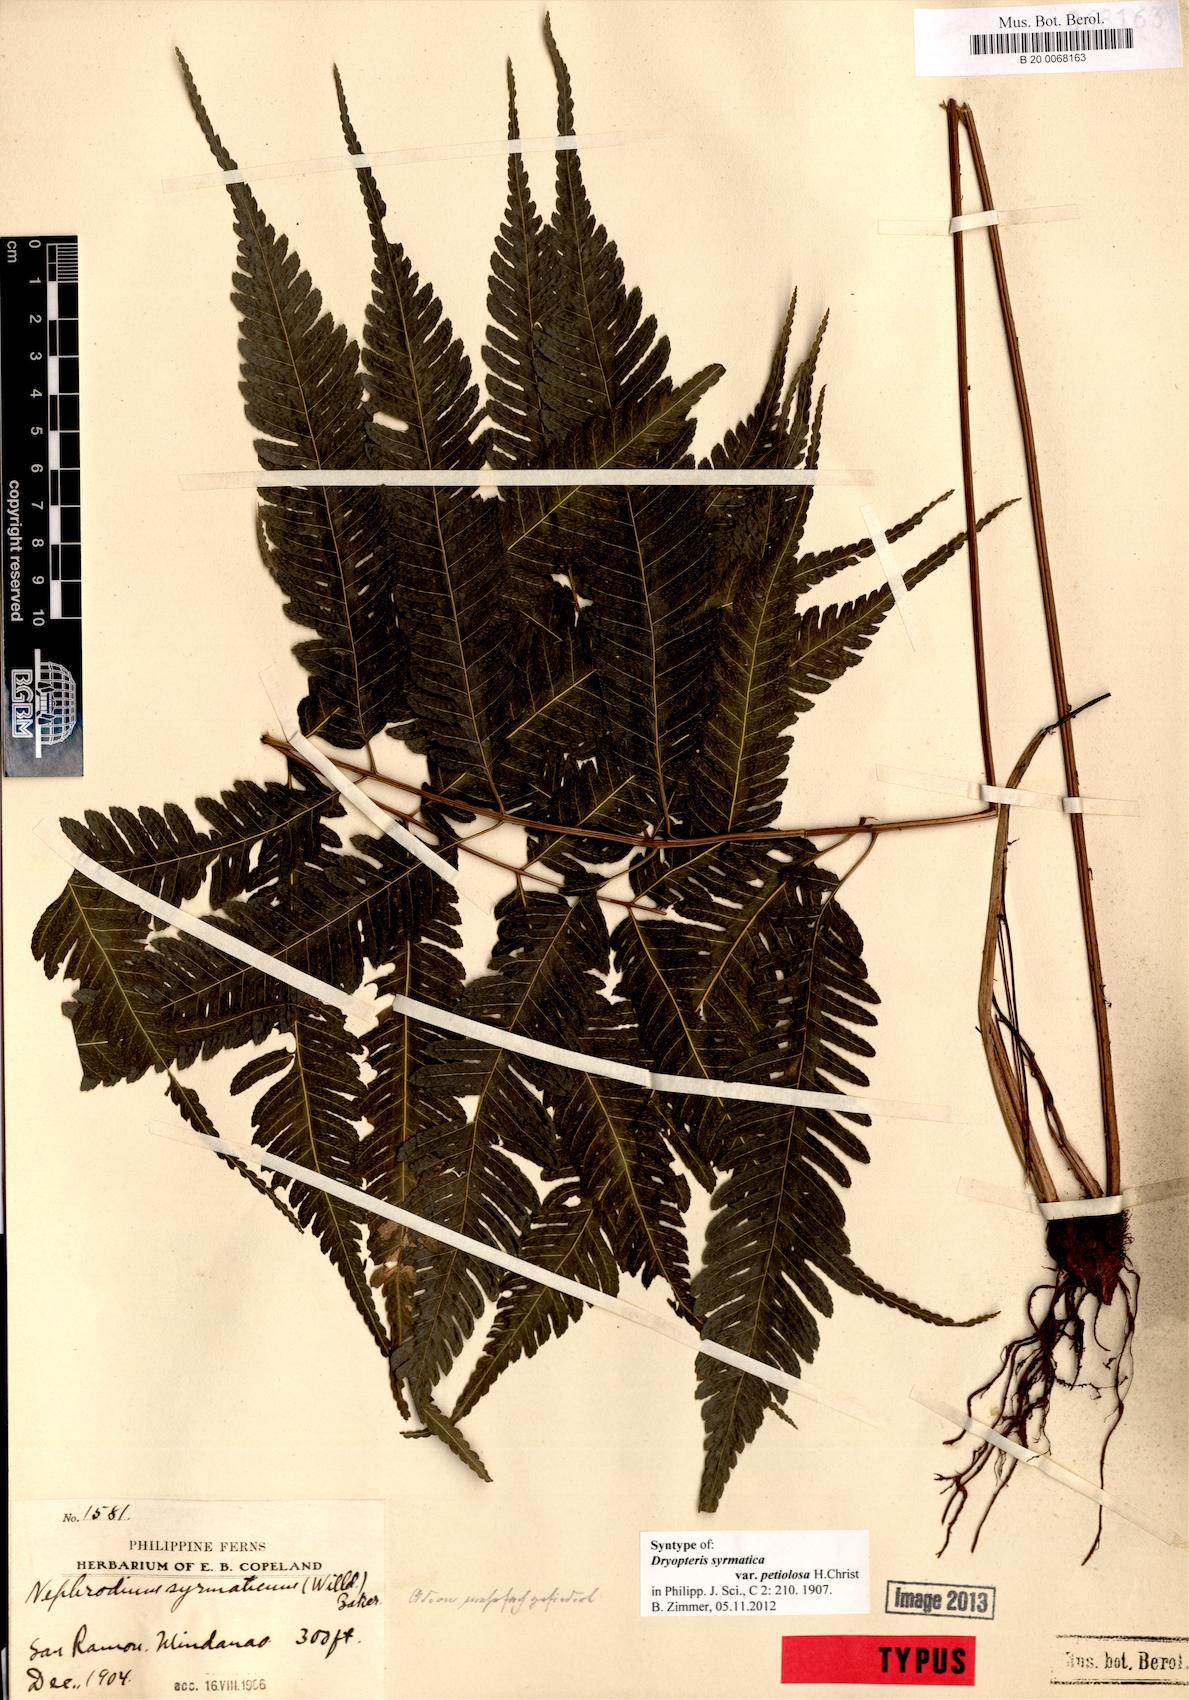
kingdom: Plantae
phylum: Tracheophyta
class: Polypodiopsida
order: Polypodiales
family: Tectariaceae
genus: Pteridrys
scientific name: Pteridrys syrmatica
